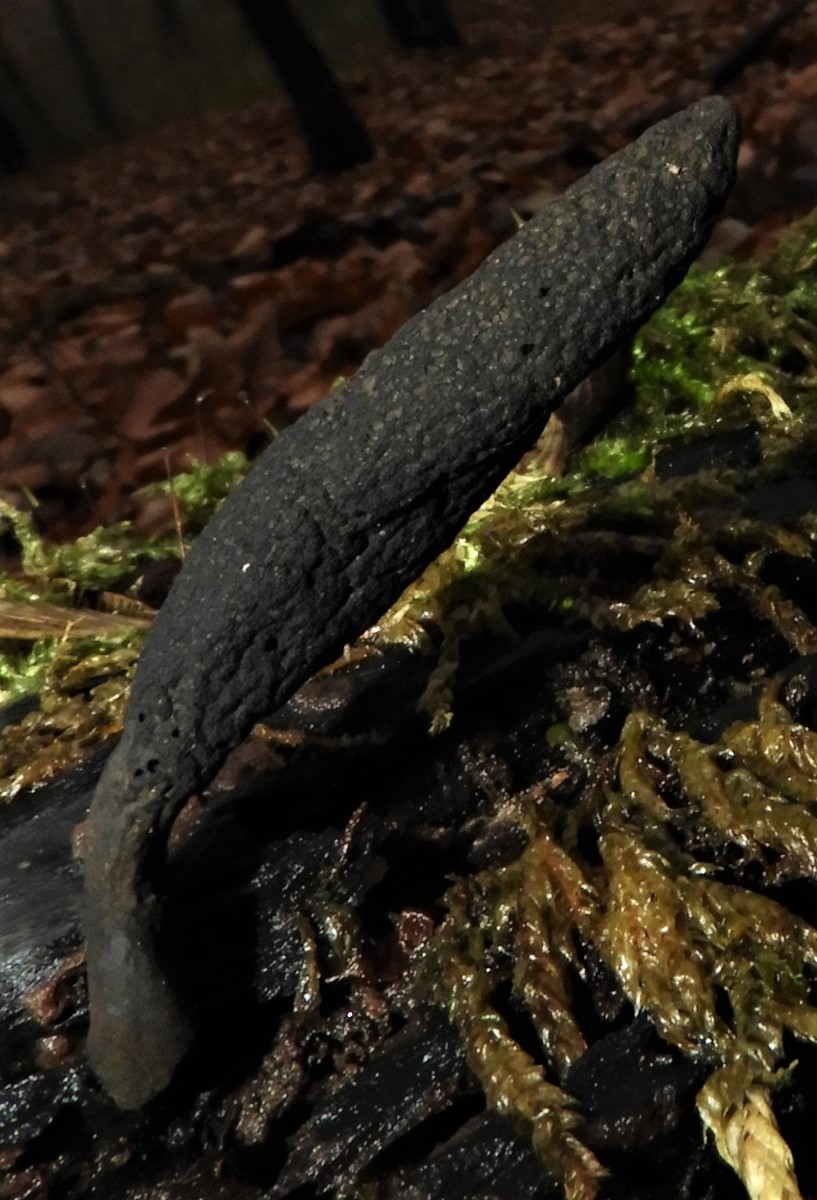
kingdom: Fungi
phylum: Ascomycota
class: Sordariomycetes
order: Xylariales
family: Xylariaceae
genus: Xylaria
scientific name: Xylaria longipes
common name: slank stødsvamp
